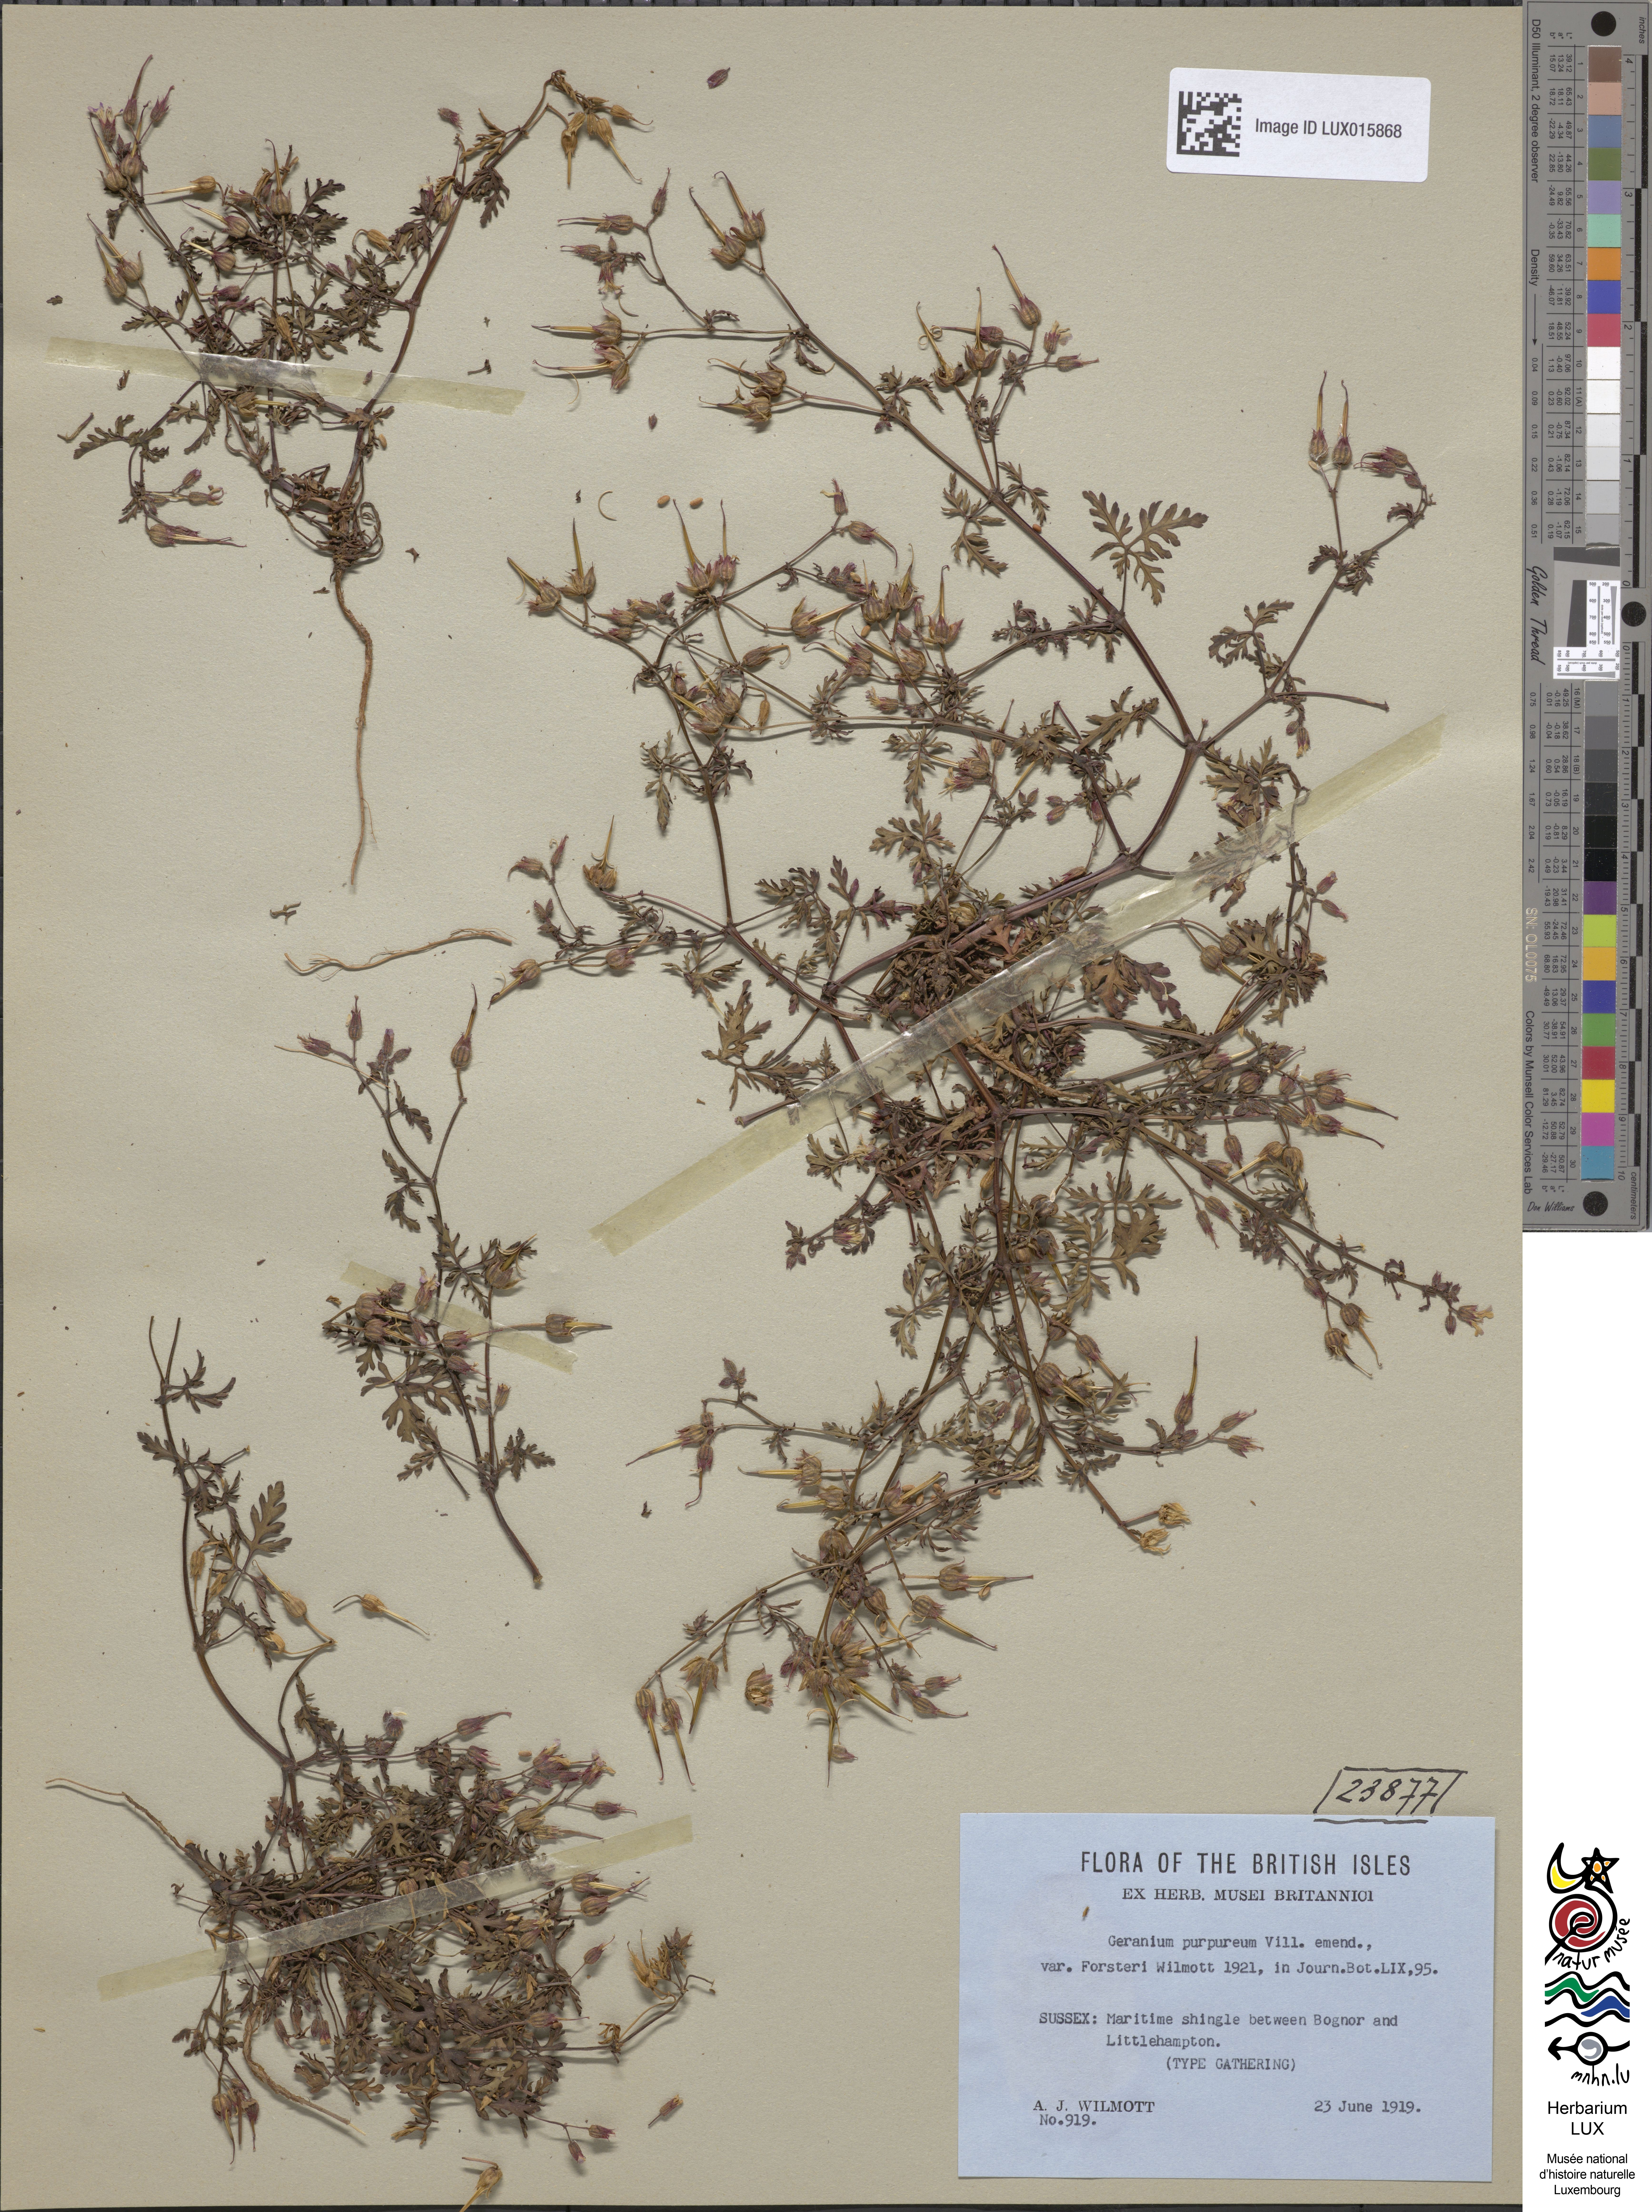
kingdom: Plantae
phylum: Tracheophyta
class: Magnoliopsida
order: Geraniales
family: Geraniaceae
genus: Geranium
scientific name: Geranium purpureum
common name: Little-robin
